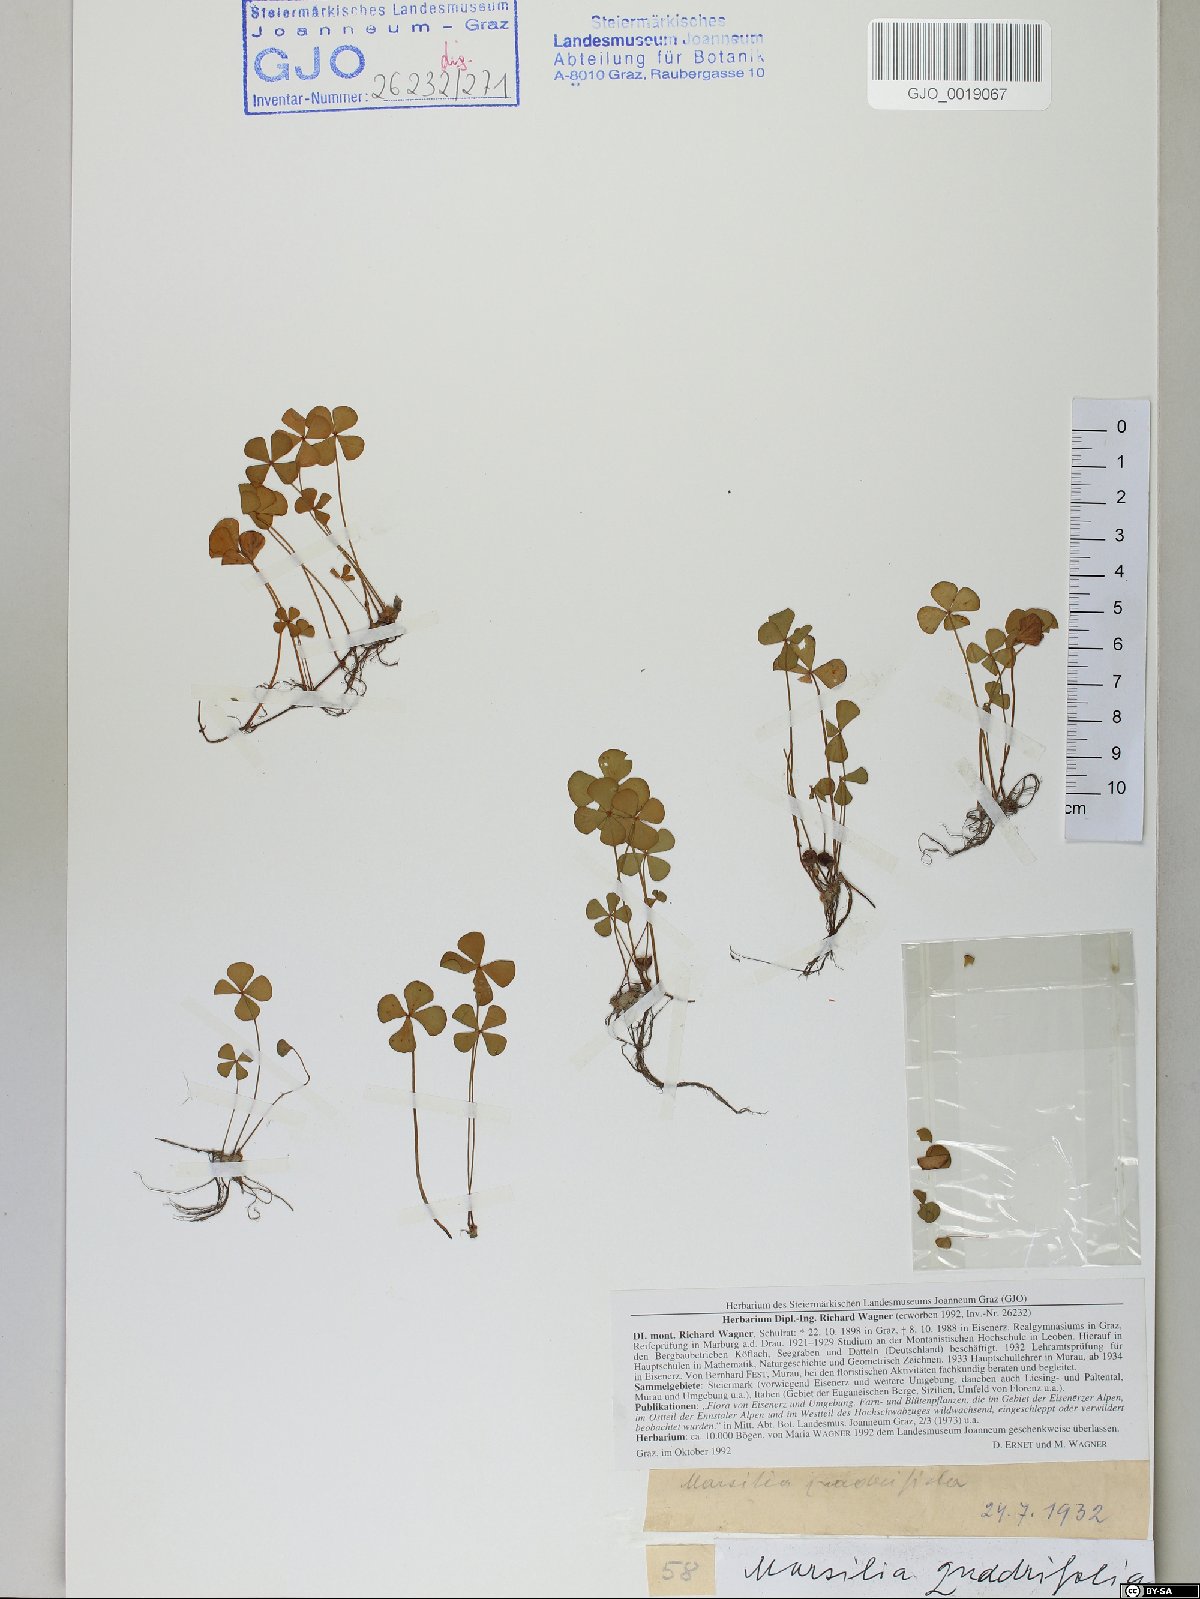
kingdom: Plantae
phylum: Tracheophyta
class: Polypodiopsida
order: Salviniales
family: Marsileaceae
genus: Marsilea
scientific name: Marsilea quadrifolia
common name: Water shamrock
